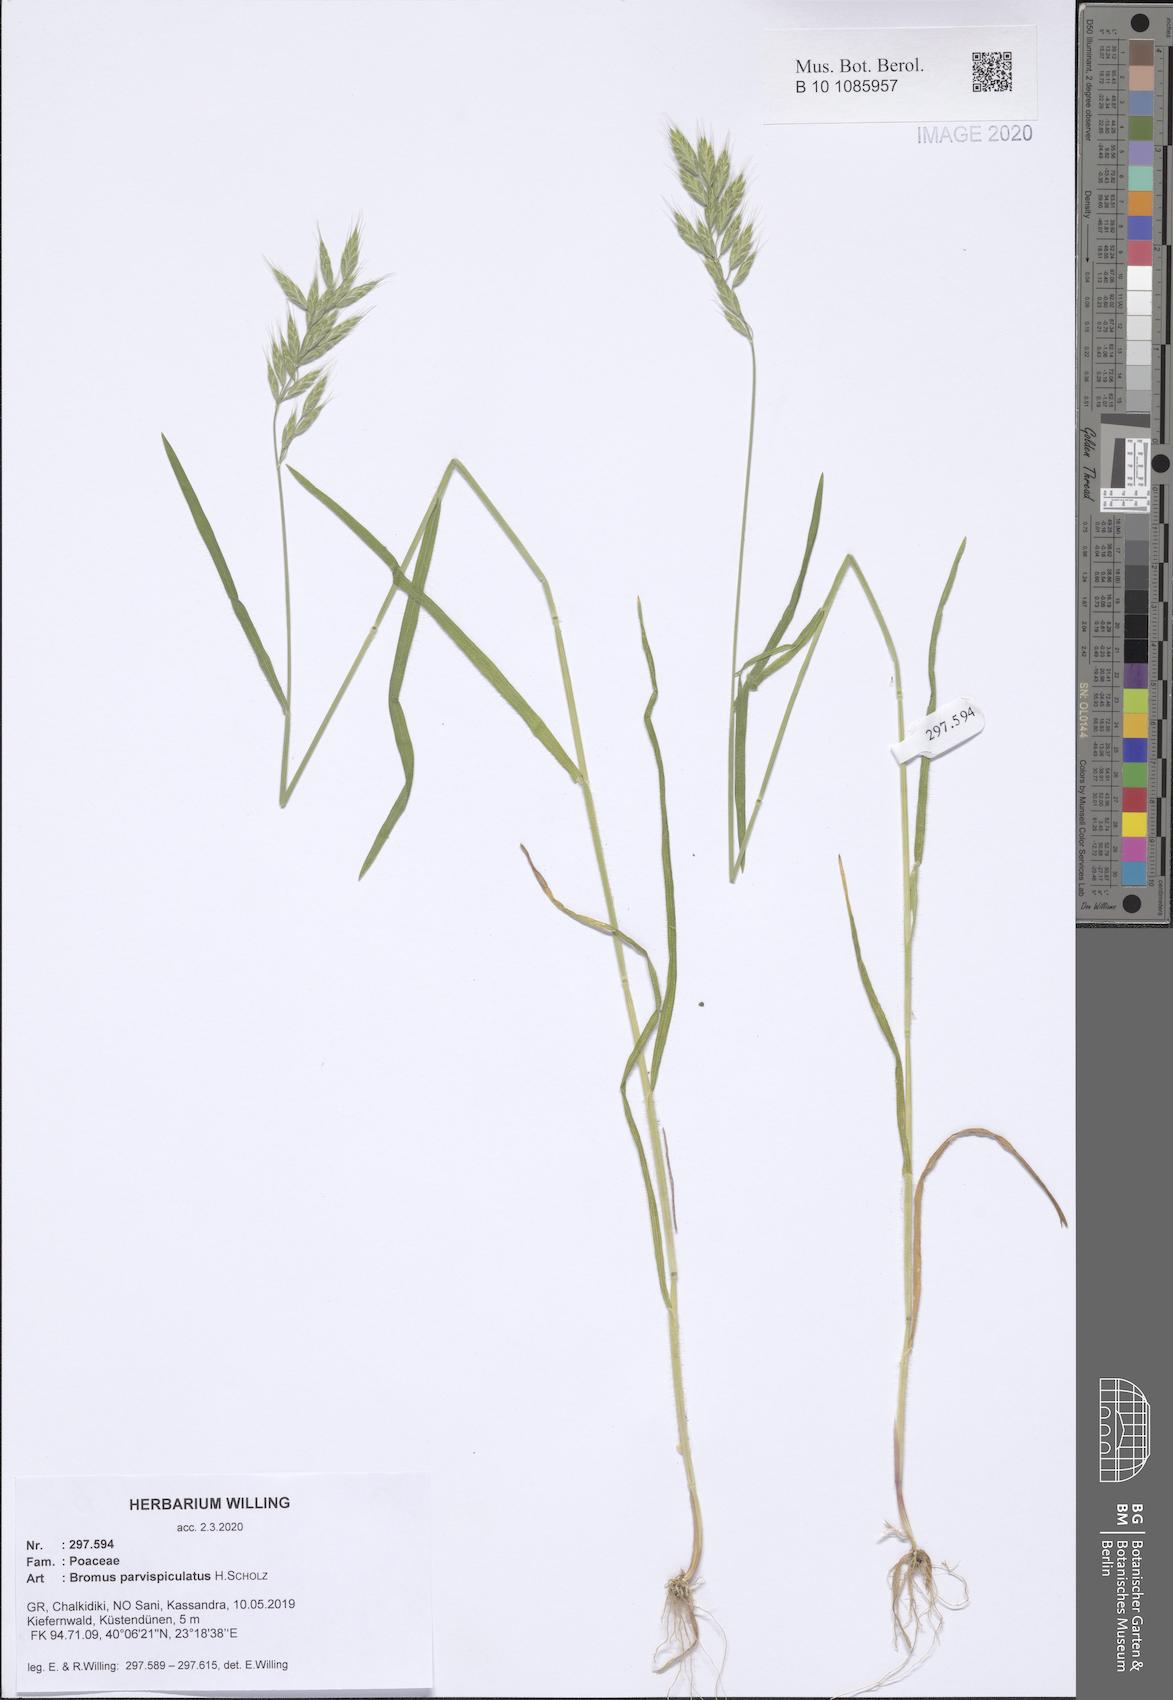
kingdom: Plantae
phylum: Tracheophyta
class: Liliopsida
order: Poales
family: Poaceae
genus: Bromus
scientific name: Bromus hordeaceus
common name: Soft brome
